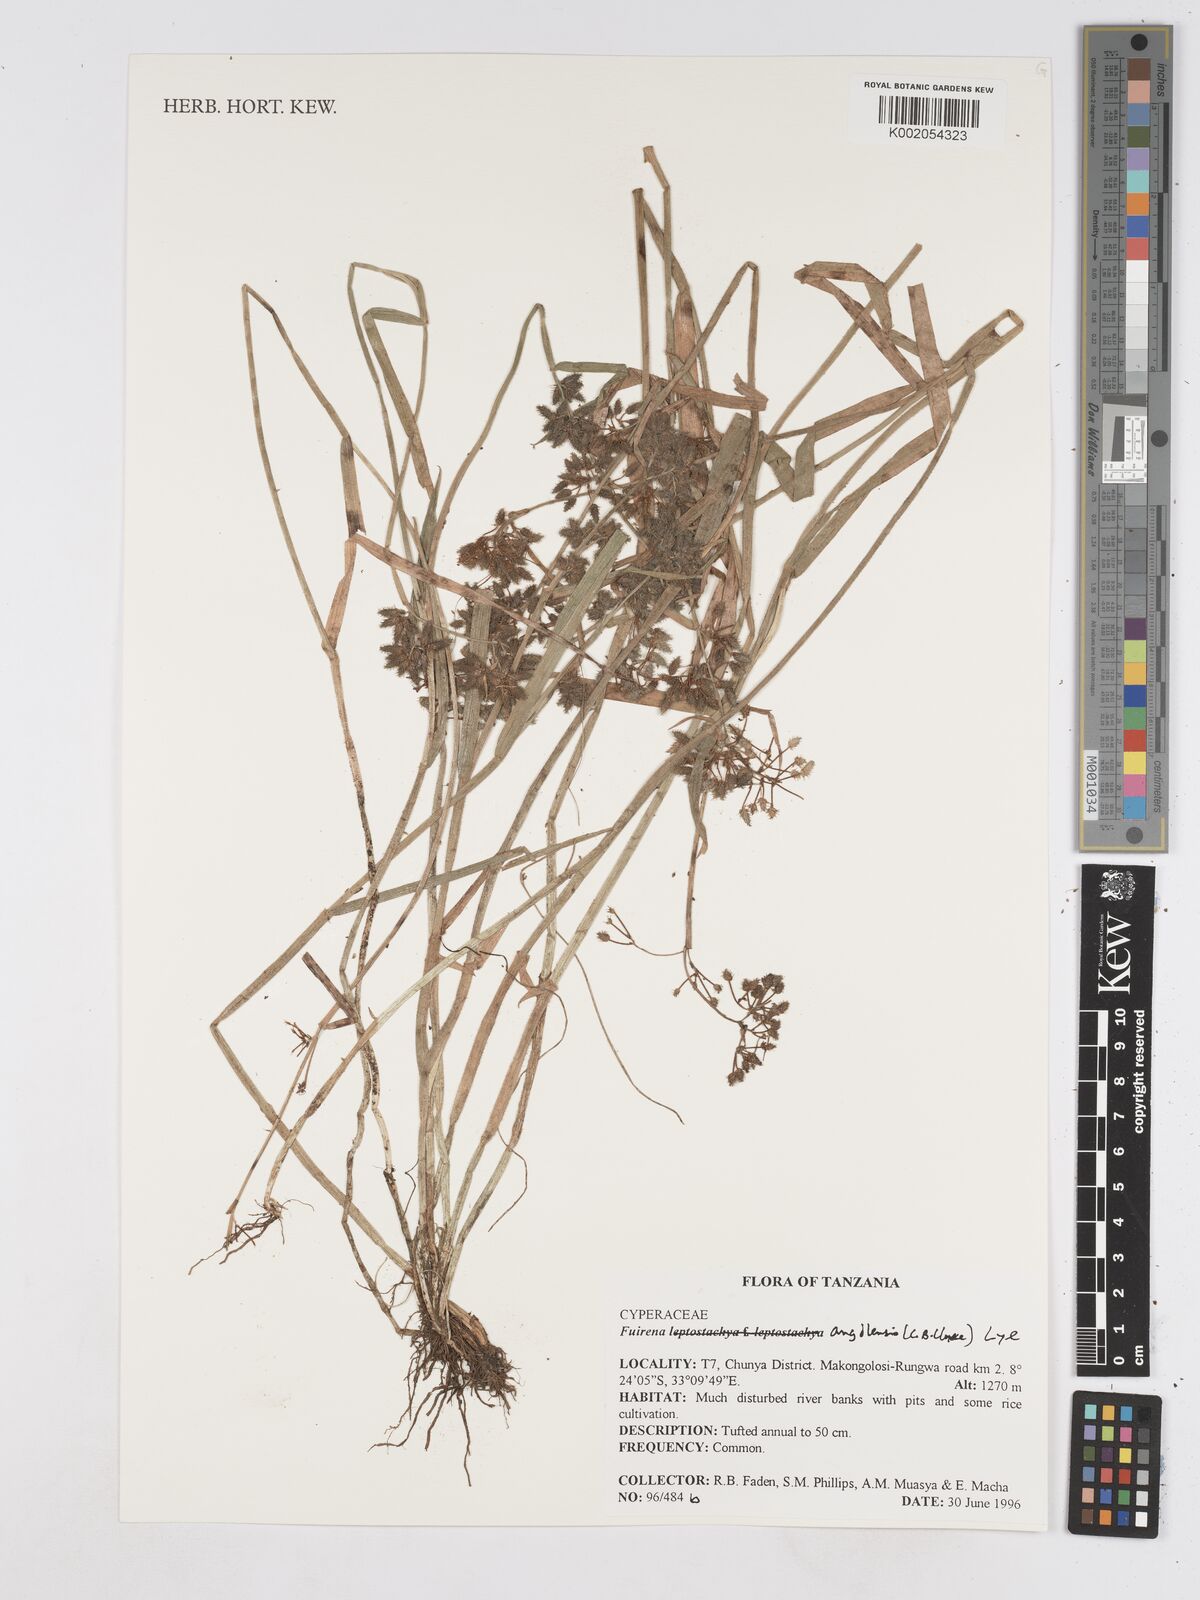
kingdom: Plantae
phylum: Tracheophyta
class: Liliopsida
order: Poales
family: Cyperaceae
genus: Fuirena
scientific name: Fuirena angolensis
